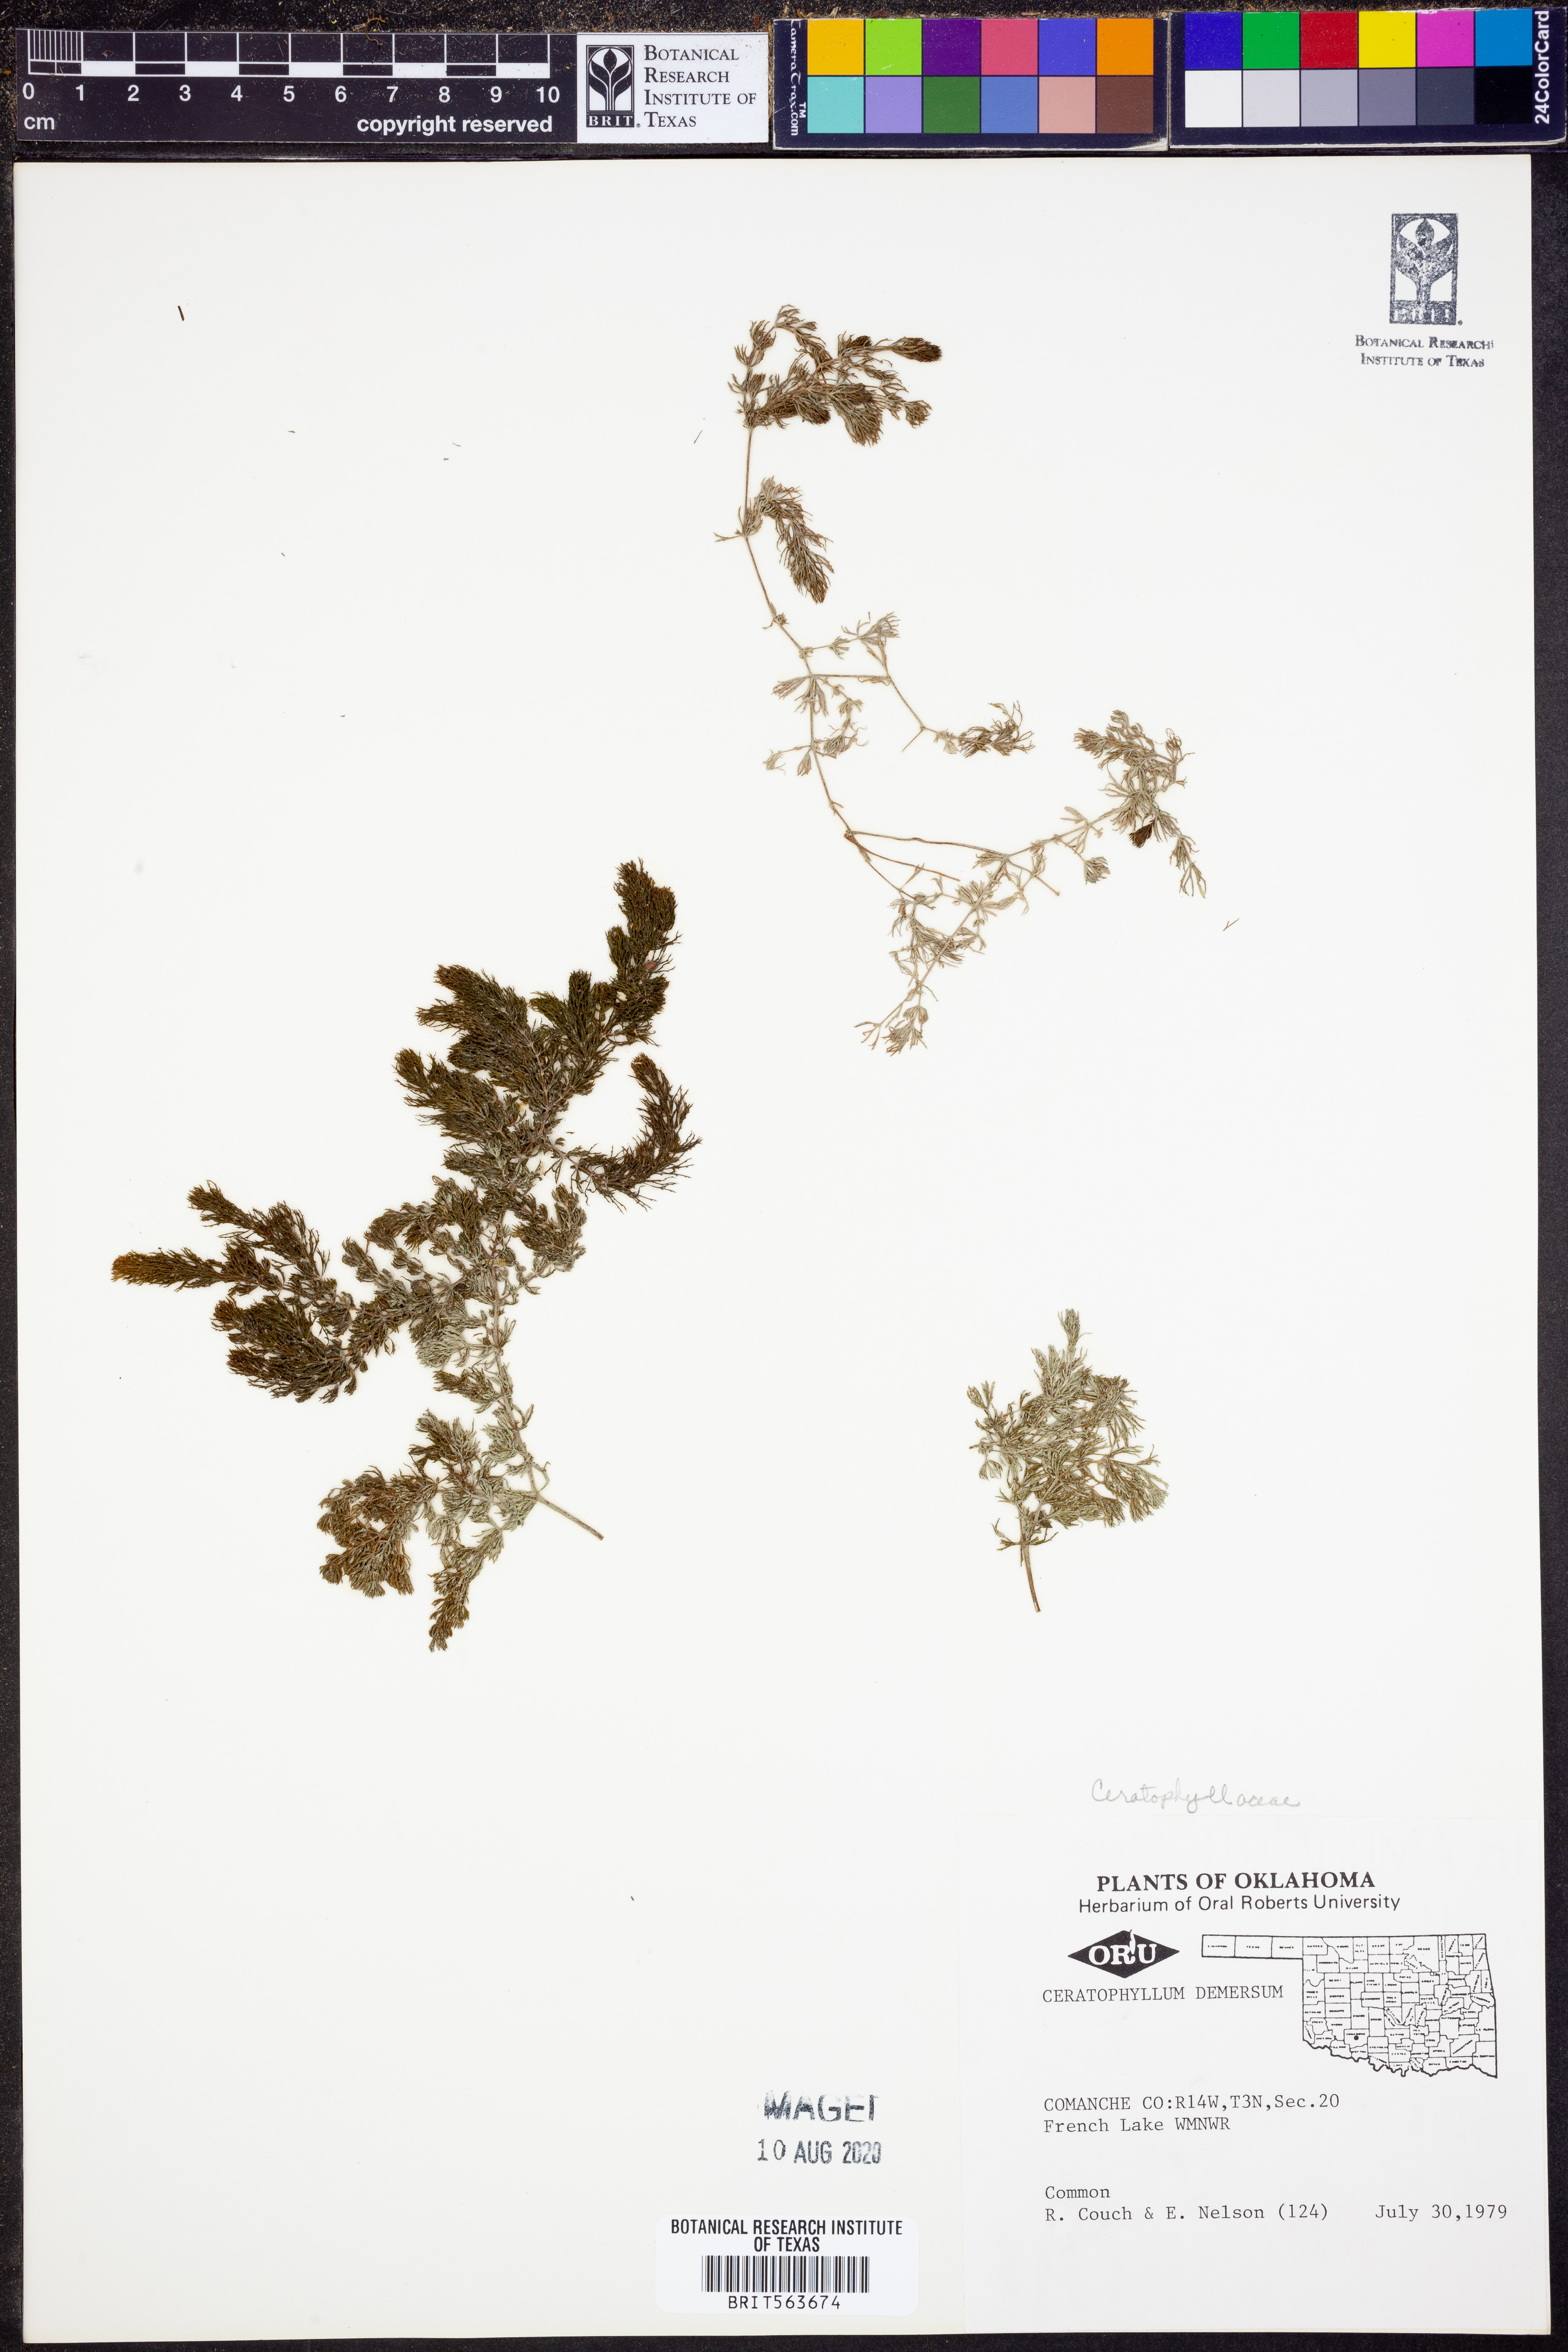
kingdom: Plantae
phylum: Tracheophyta
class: Magnoliopsida
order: Ceratophyllales
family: Ceratophyllaceae
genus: Ceratophyllum
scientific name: Ceratophyllum demersum
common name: Rigid hornwort
